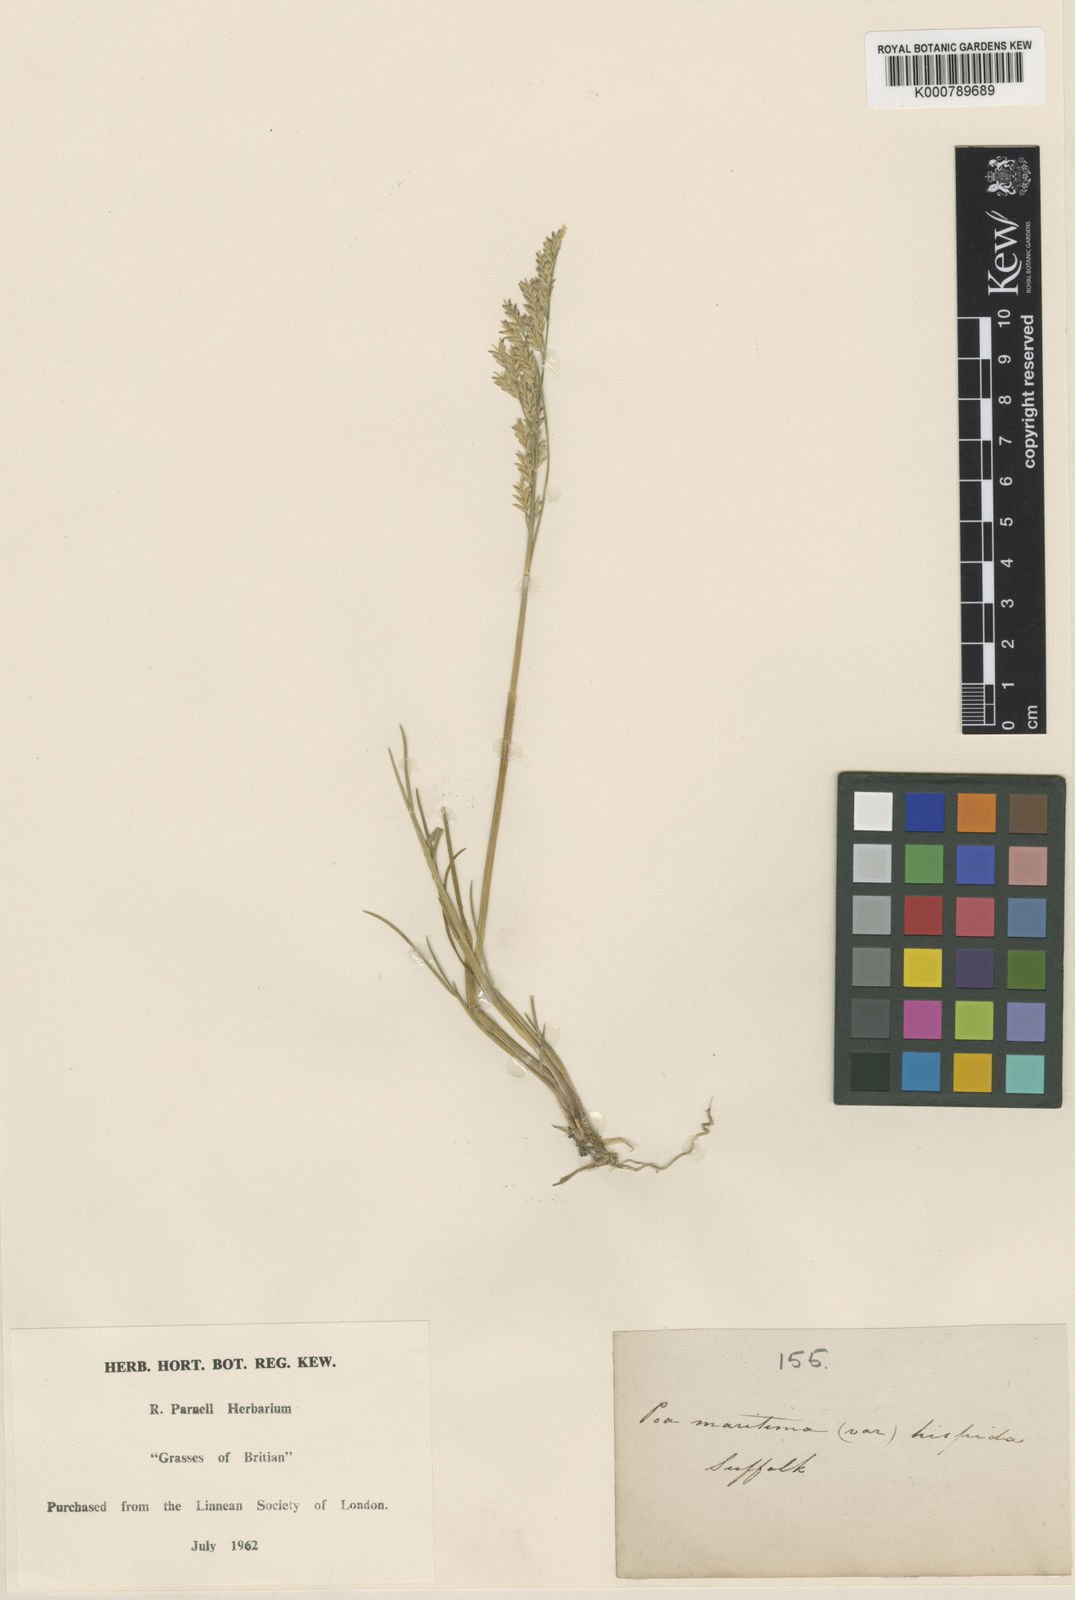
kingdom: Plantae
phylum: Tracheophyta
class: Liliopsida
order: Poales
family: Poaceae
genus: Puccinellia
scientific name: Puccinellia maritima
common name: Common saltmarsh grass
